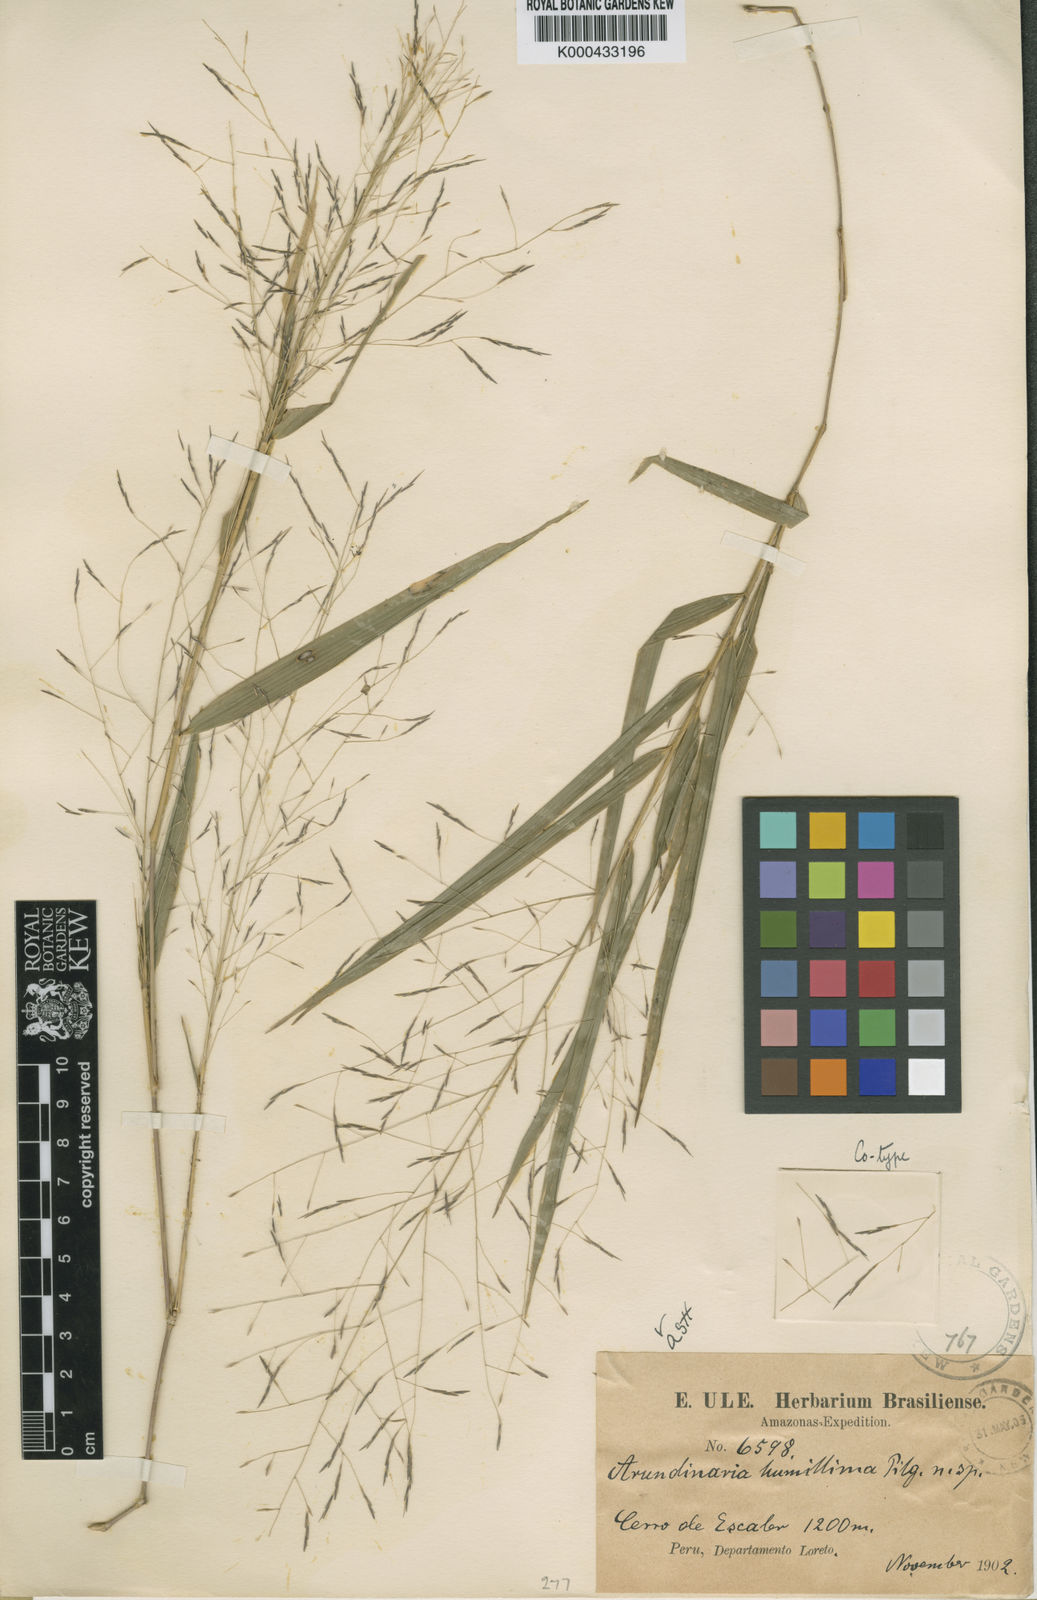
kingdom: Plantae
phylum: Tracheophyta
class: Liliopsida
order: Poales
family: Poaceae
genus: Aulonemia
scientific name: Aulonemia humillima
